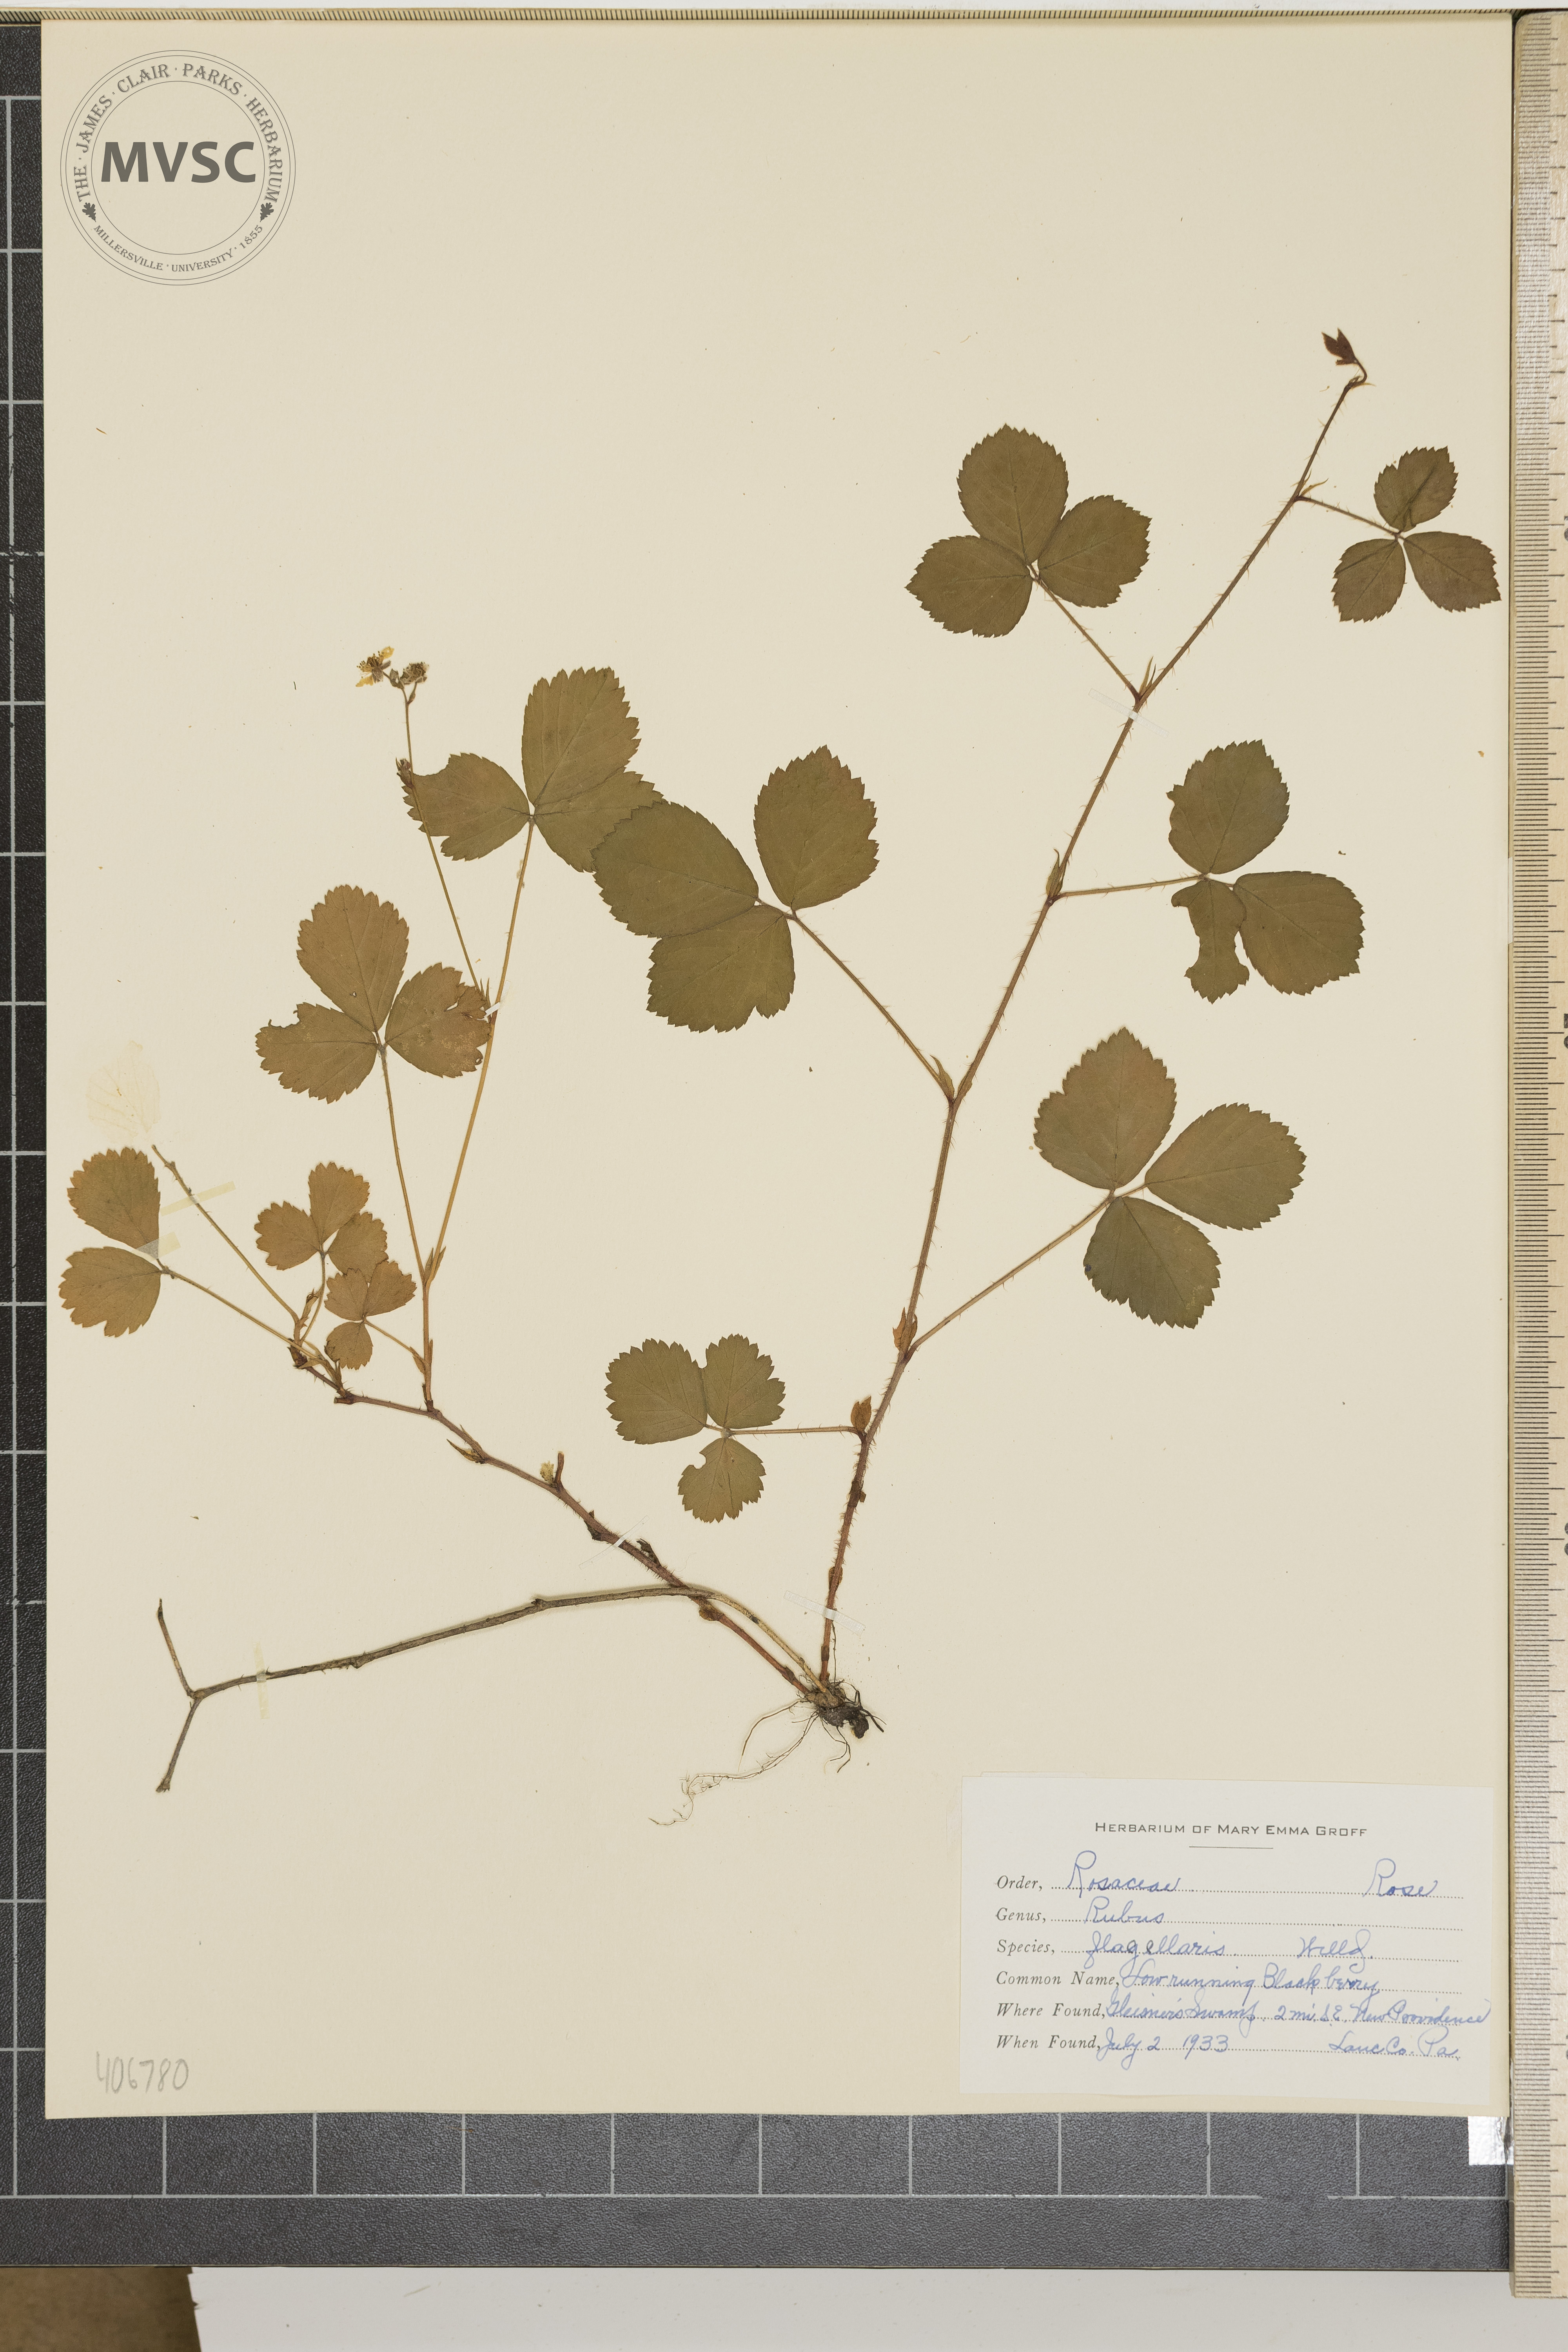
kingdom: Plantae
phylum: Tracheophyta
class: Magnoliopsida
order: Rosales
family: Rosaceae
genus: Rubus
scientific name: Rubus flagellaris
